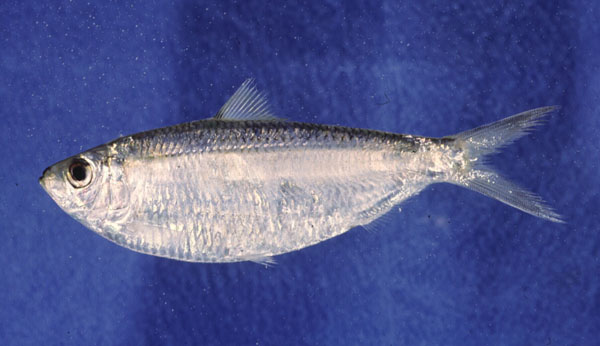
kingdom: Animalia
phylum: Chordata
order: Clupeiformes
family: Clupeidae
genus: Sardinella
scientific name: Sardinella albella
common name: White sardinella
